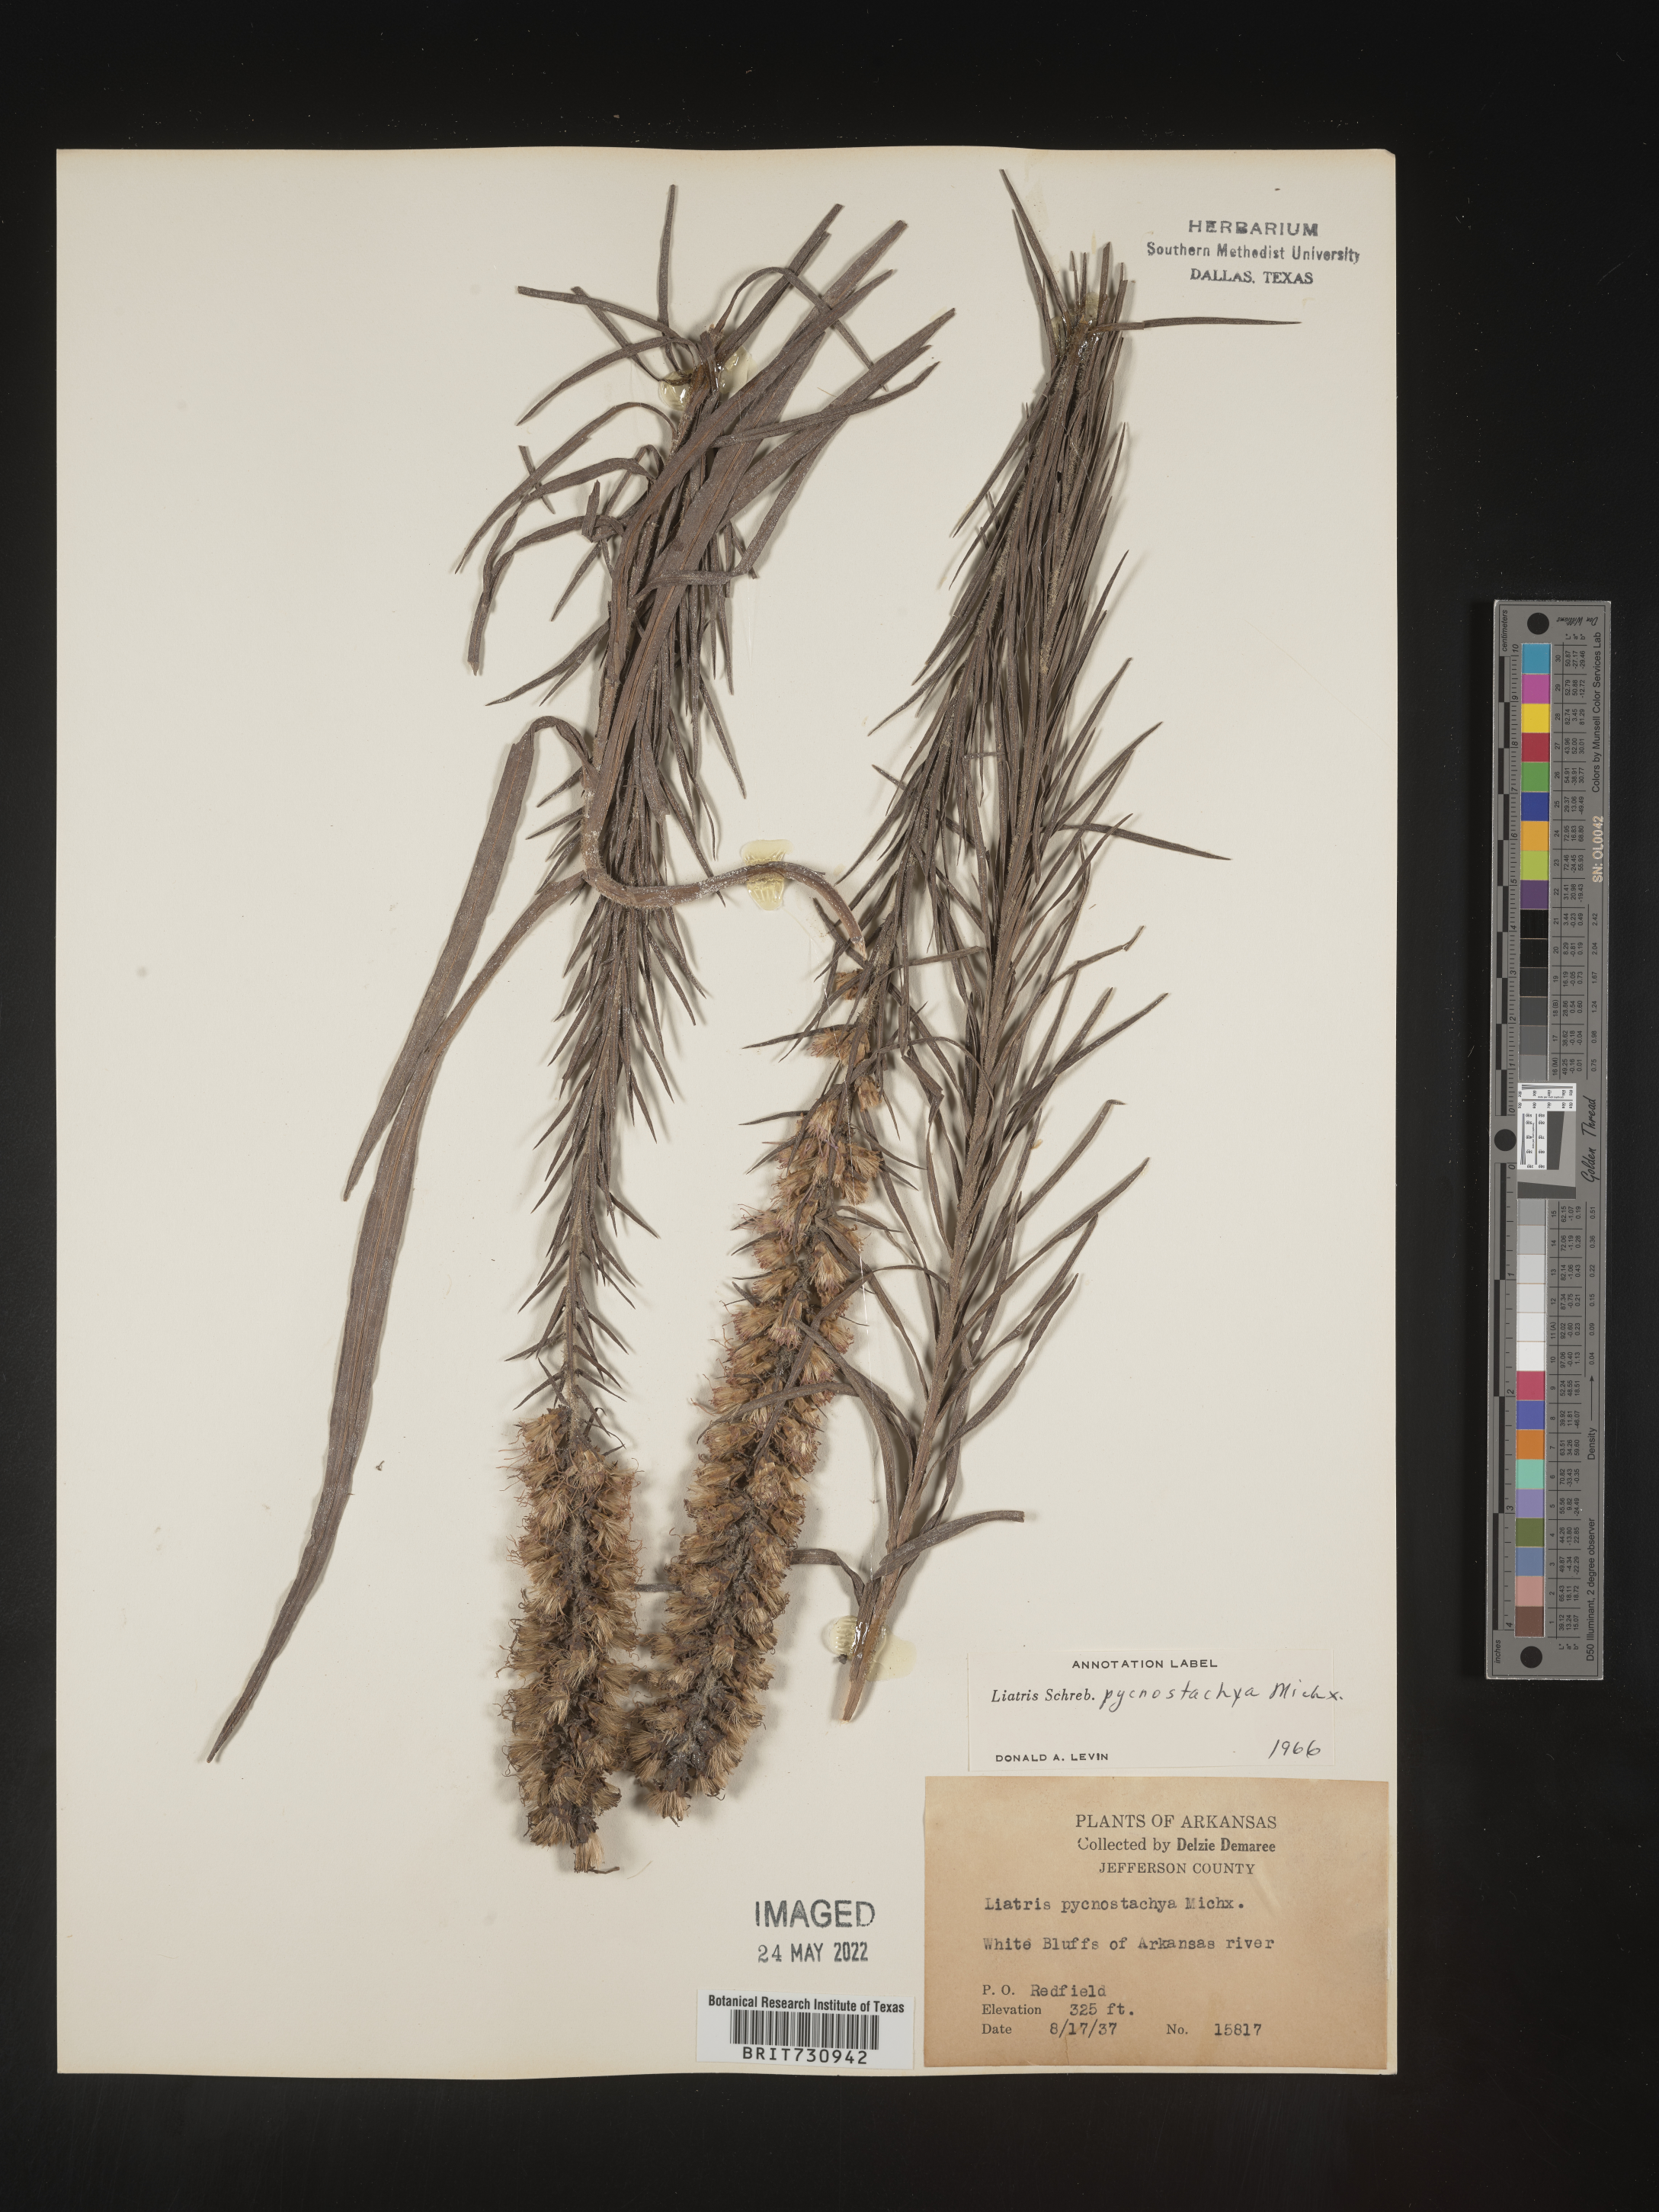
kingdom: Plantae
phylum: Tracheophyta
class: Magnoliopsida
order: Asterales
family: Asteraceae
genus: Liatris
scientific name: Liatris pycnostachya
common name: Cattail gayfeather
